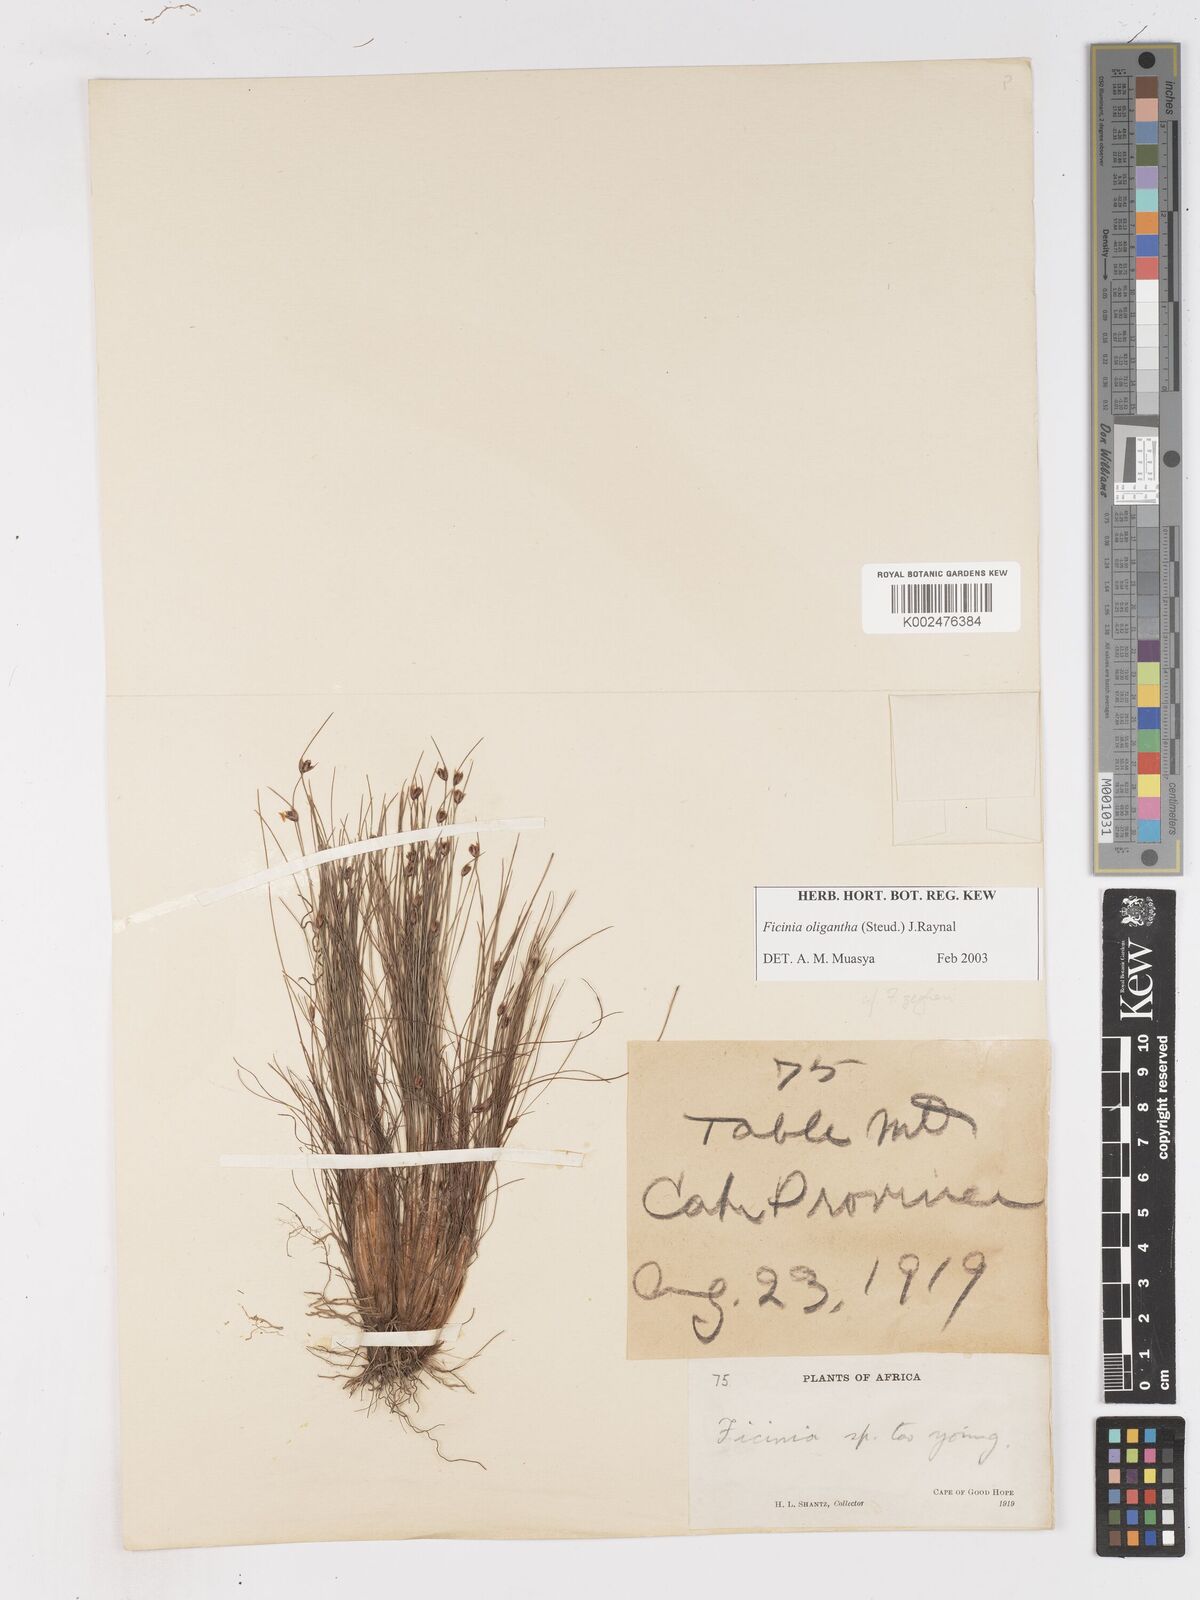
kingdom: Plantae
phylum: Tracheophyta
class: Liliopsida
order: Poales
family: Cyperaceae
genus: Ficinia
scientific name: Ficinia oligantha
